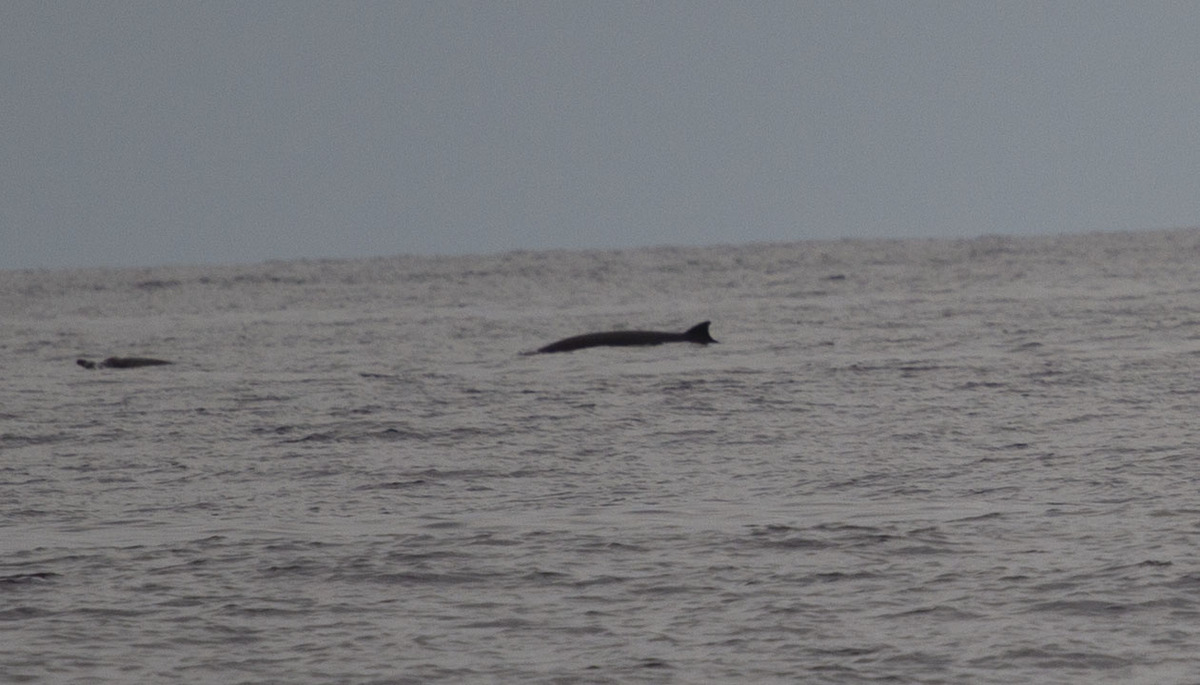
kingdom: Animalia
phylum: Chordata
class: Mammalia
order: Cetacea
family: Hyperoodontidae
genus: Mesoplodon
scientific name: Mesoplodon densirostris
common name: Blainville's Beaked Whale
